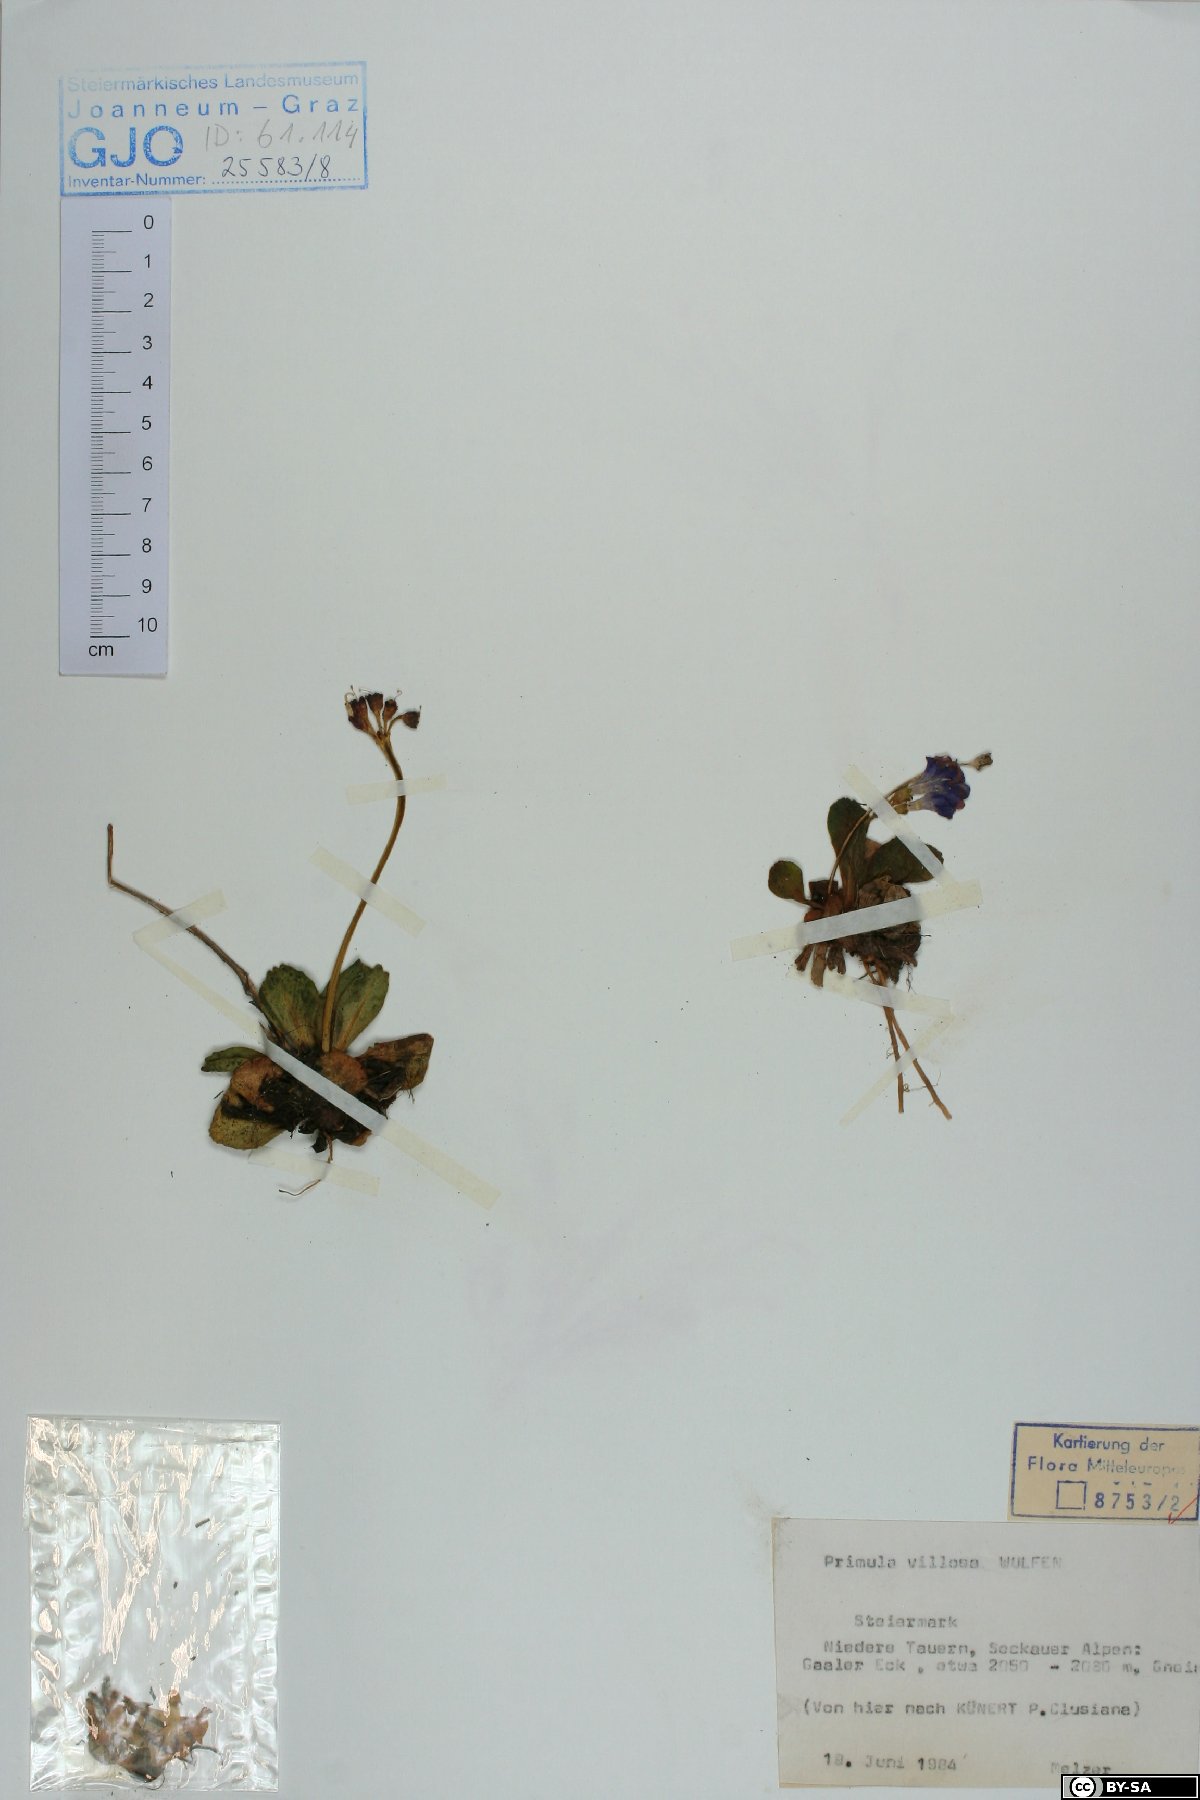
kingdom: Plantae
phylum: Tracheophyta
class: Magnoliopsida
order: Ericales
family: Primulaceae
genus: Primula
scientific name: Primula villosa
